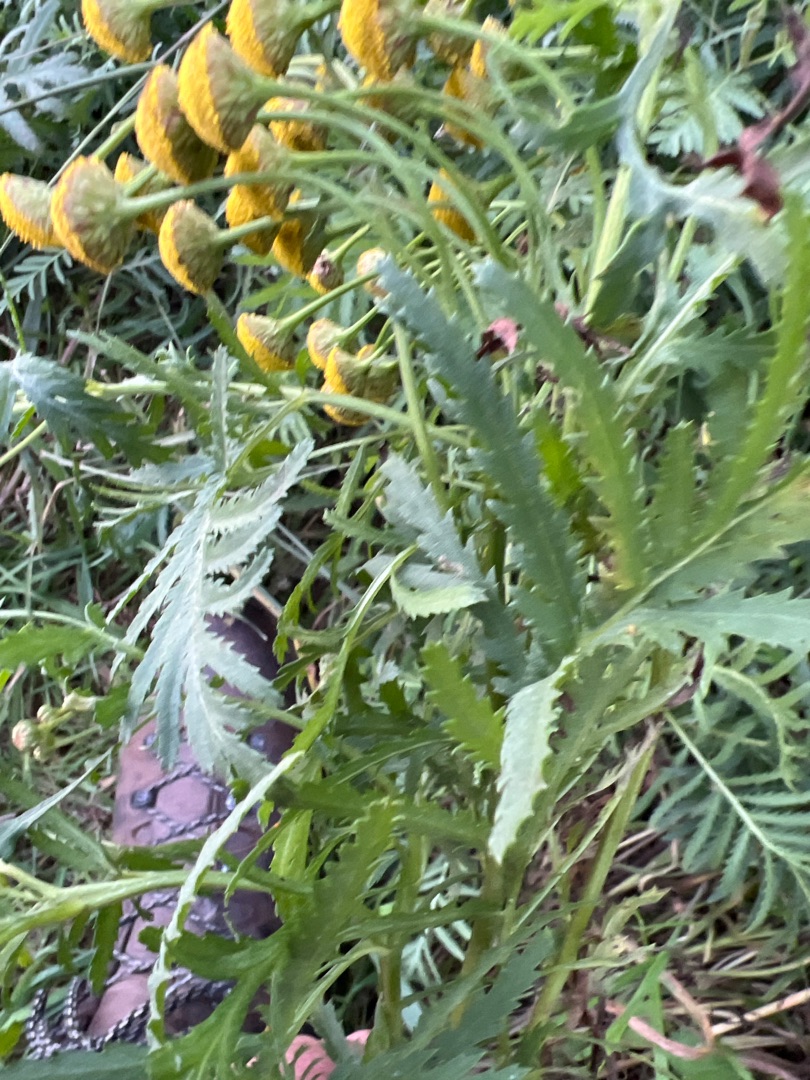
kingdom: Plantae
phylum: Tracheophyta
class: Magnoliopsida
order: Asterales
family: Asteraceae
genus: Tanacetum
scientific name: Tanacetum vulgare
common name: Rejnfan
